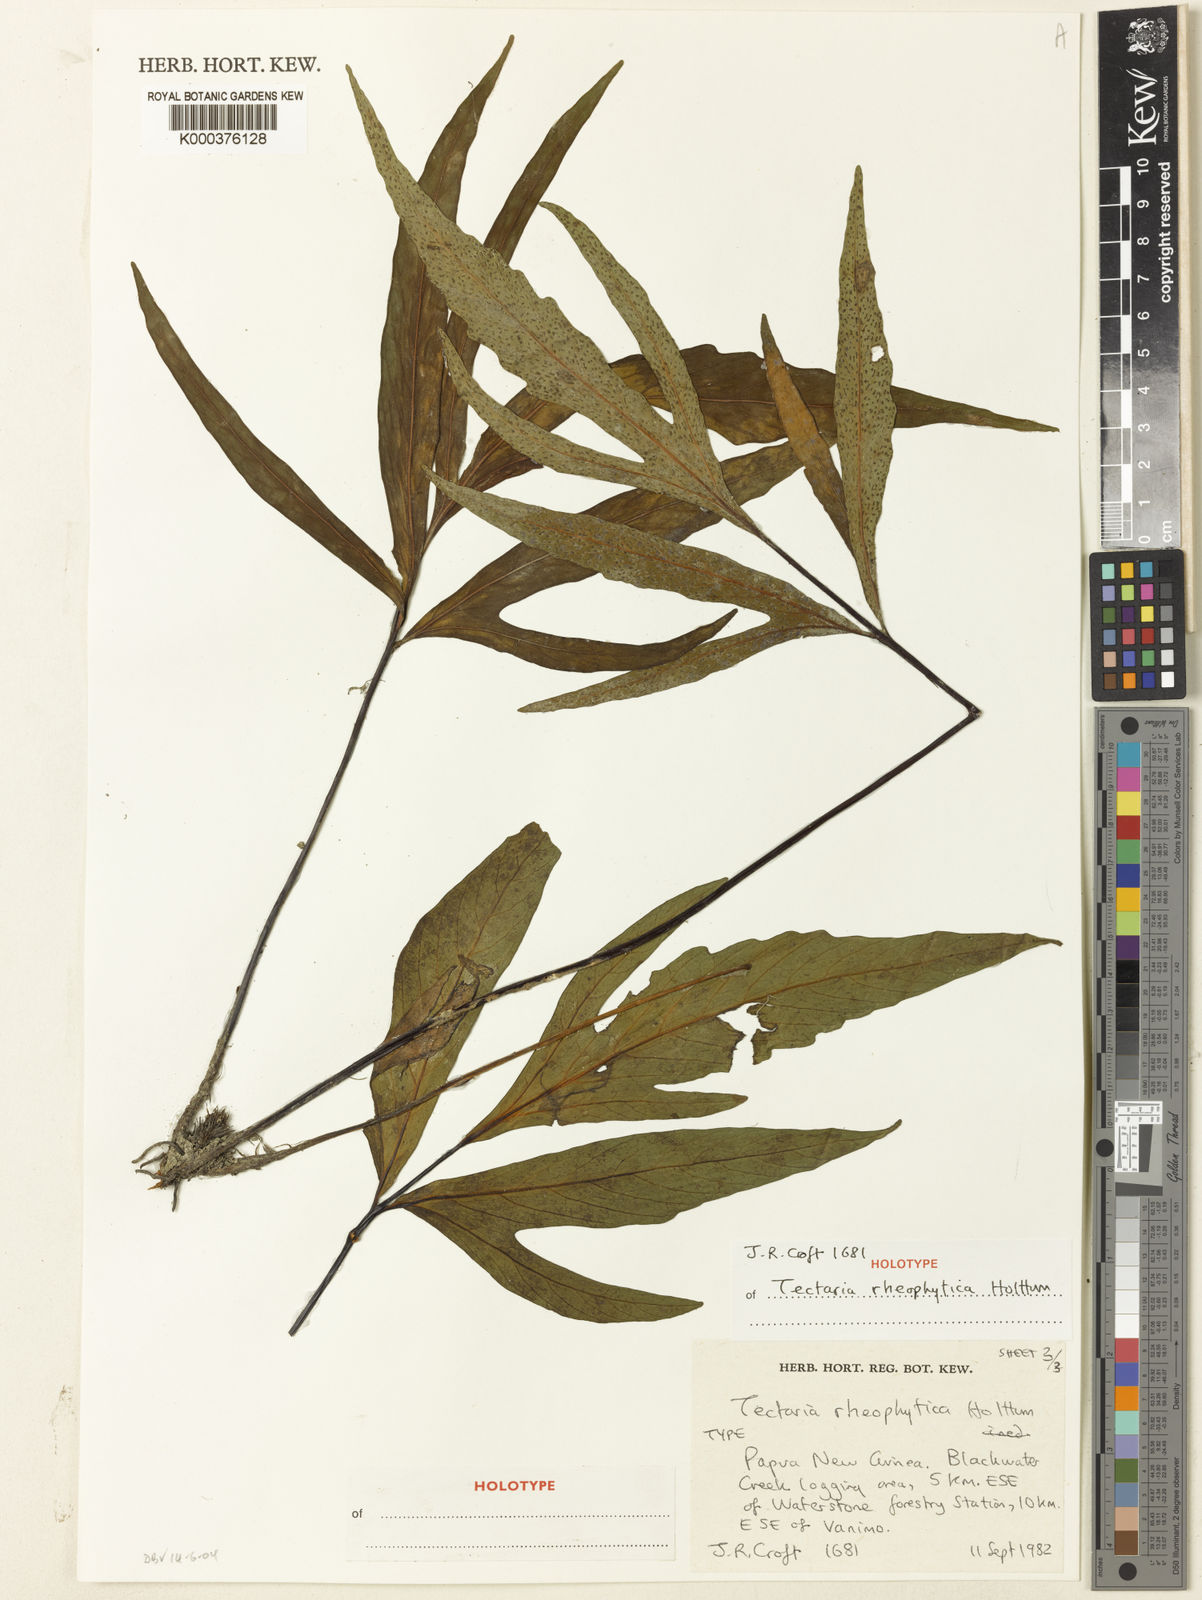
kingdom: Plantae
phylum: Tracheophyta
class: Polypodiopsida
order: Polypodiales
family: Tectariaceae
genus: Tectaria
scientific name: Tectaria rheophytica
